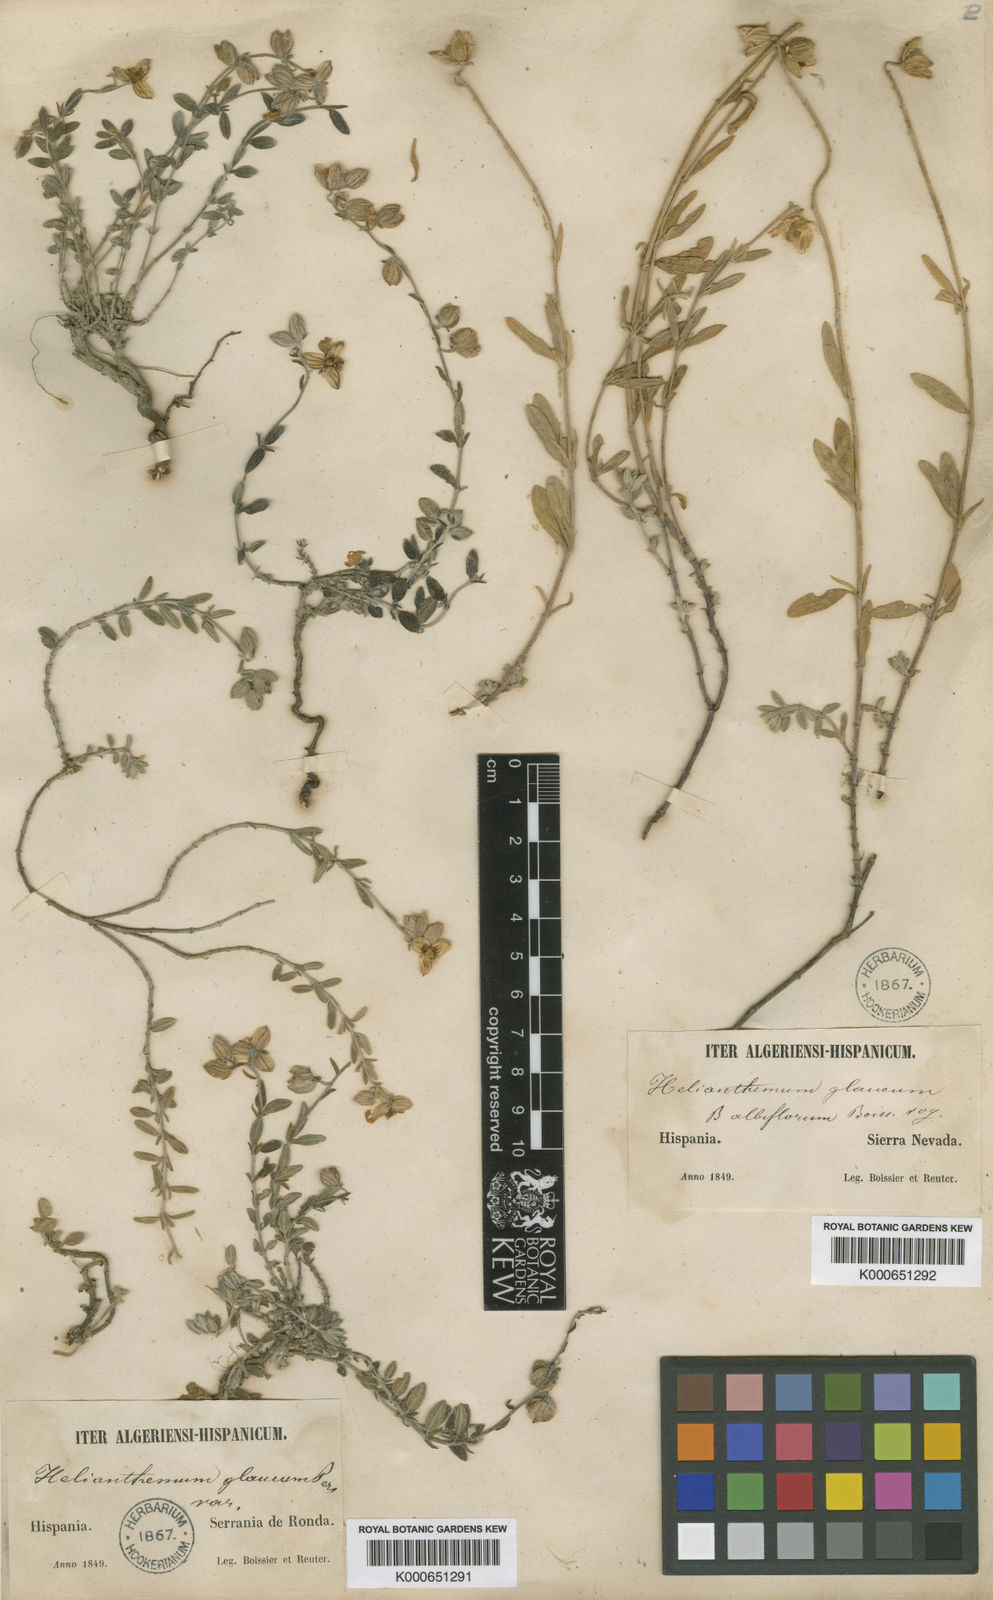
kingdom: Plantae
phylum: Tracheophyta
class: Magnoliopsida
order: Malvales
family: Cistaceae
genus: Helianthemum
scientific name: Helianthemum croceum
